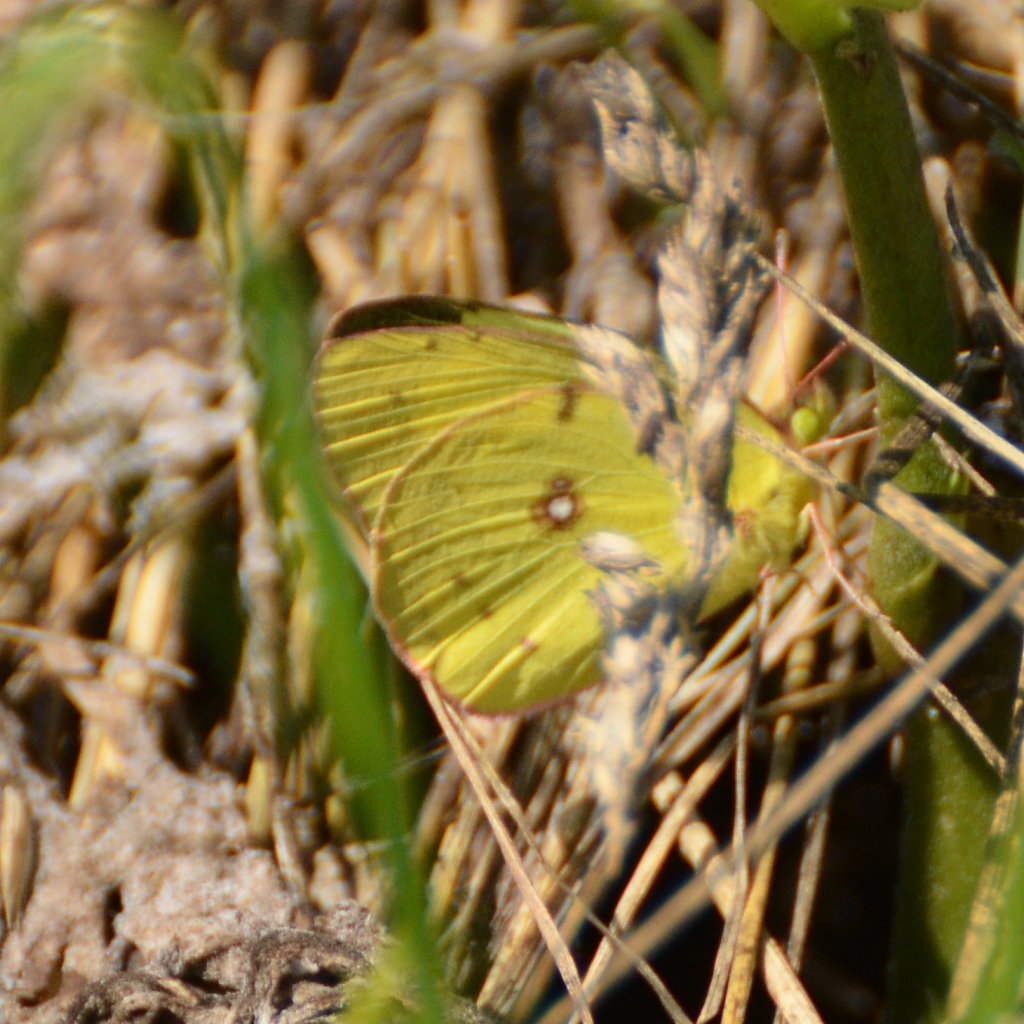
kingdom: Animalia
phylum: Arthropoda
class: Insecta
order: Lepidoptera
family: Pieridae
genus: Colias
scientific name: Colias philodice
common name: Clouded Sulphur
